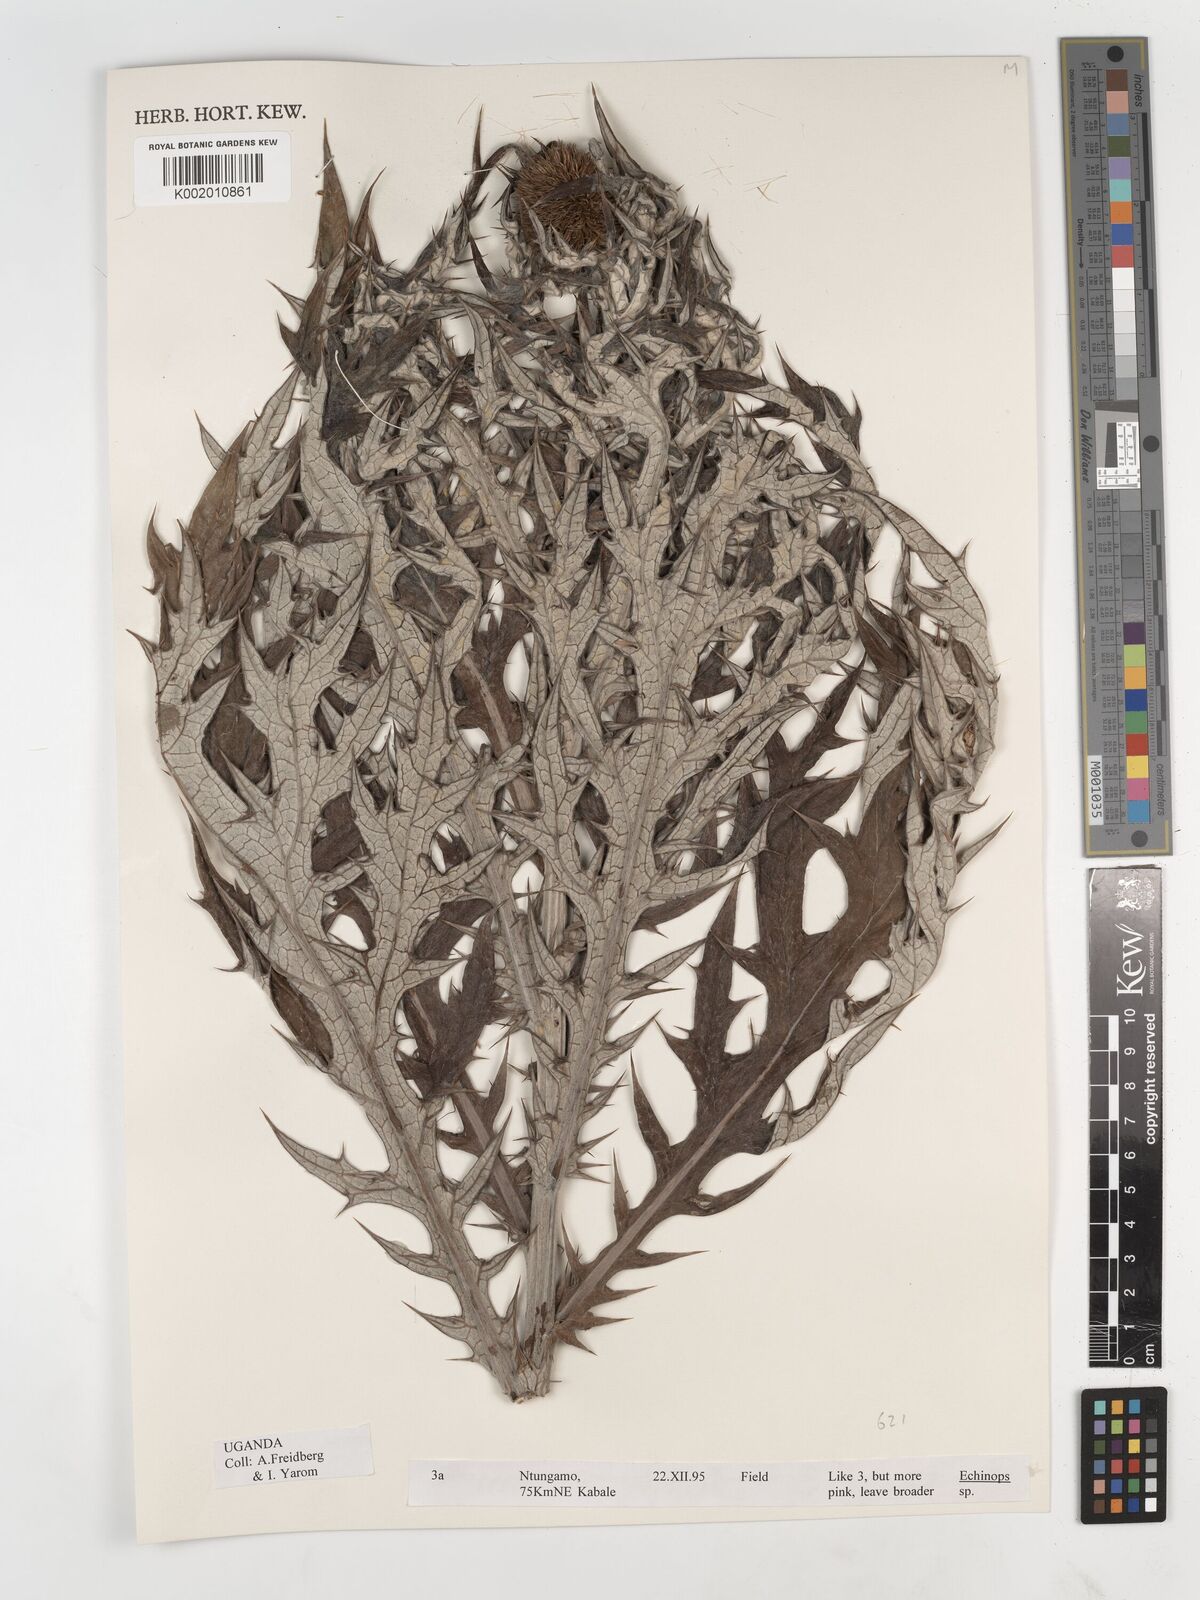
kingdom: Plantae
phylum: Tracheophyta
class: Magnoliopsida
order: Asterales
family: Asteraceae
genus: Echinops
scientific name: Echinops
